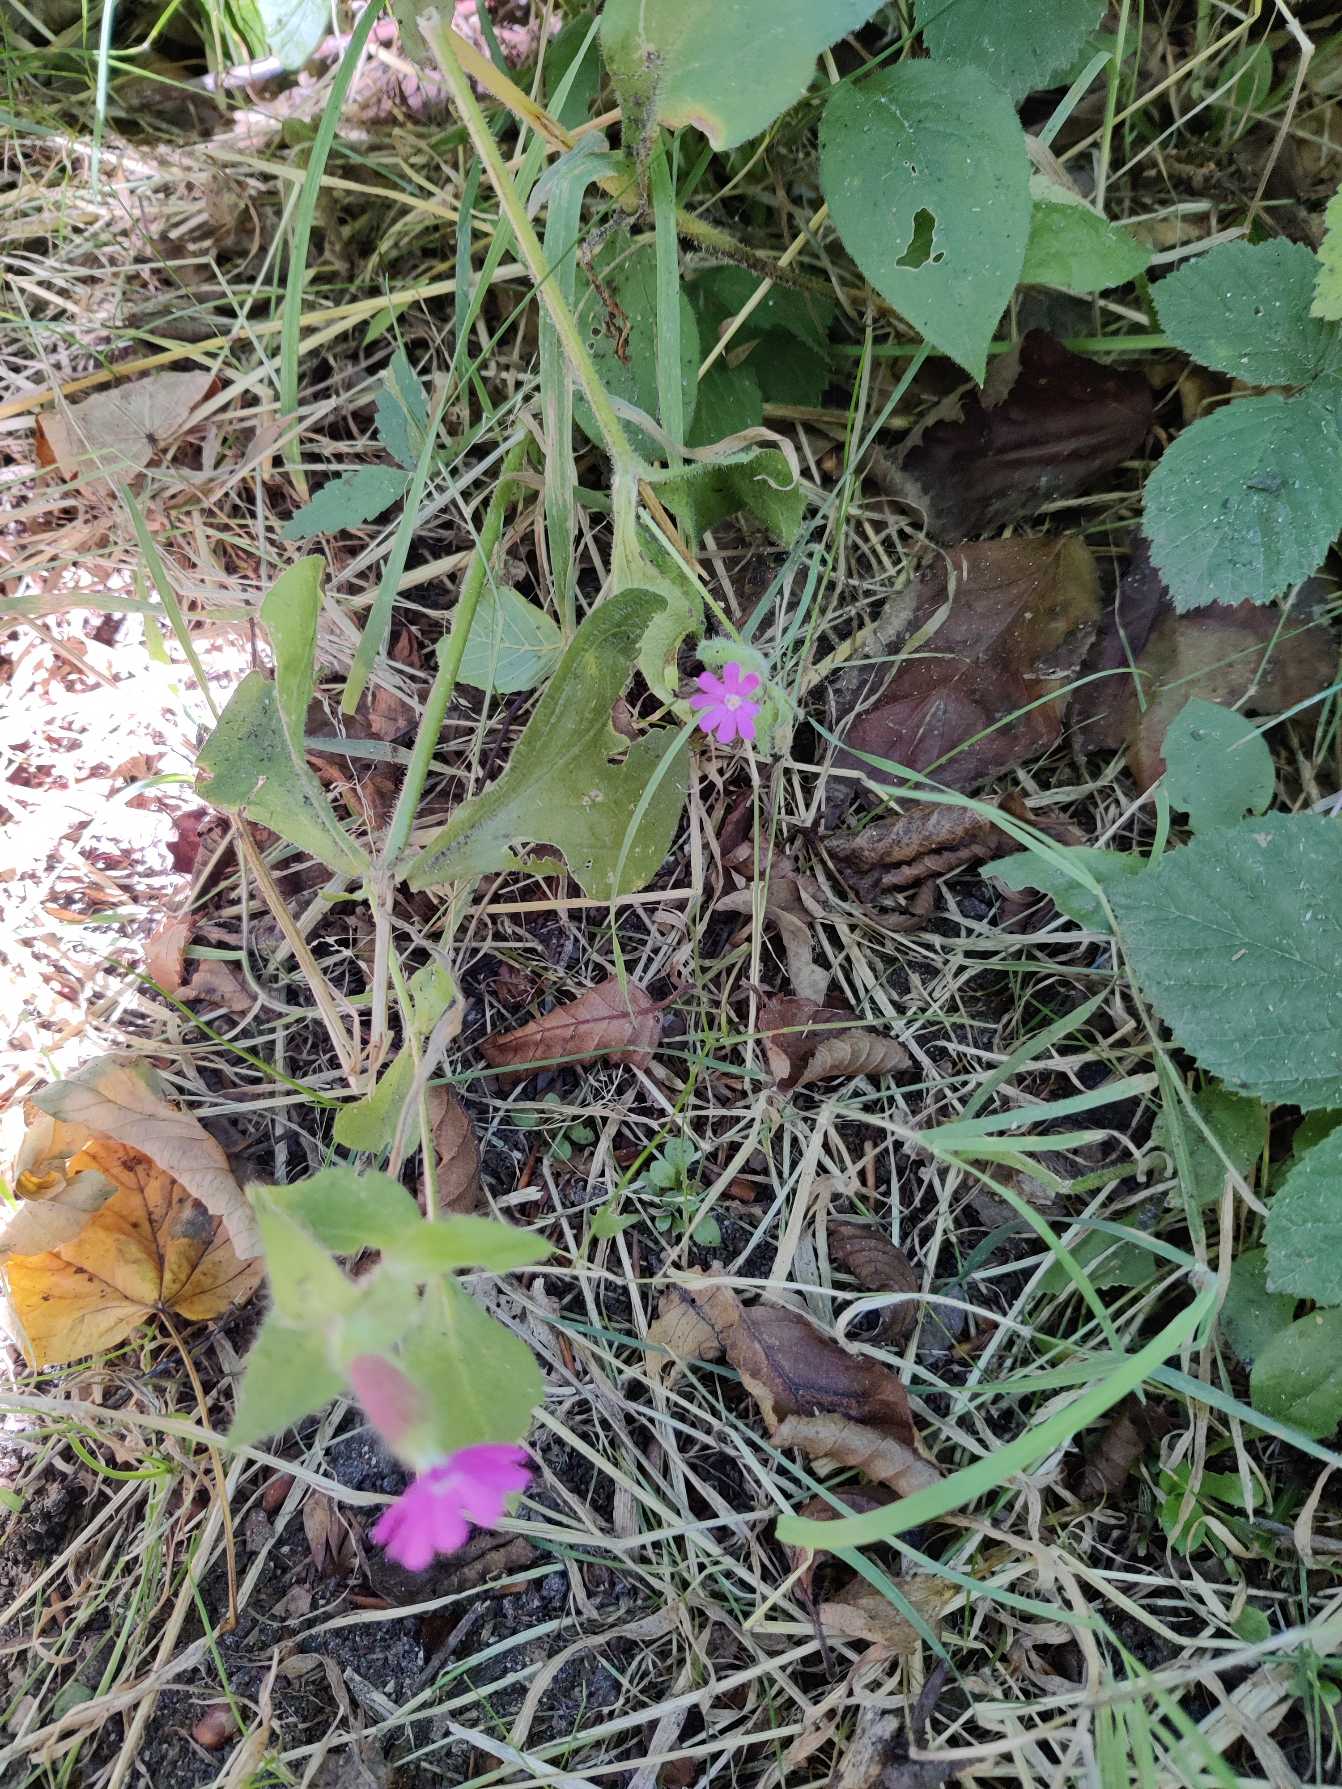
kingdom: Plantae
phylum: Tracheophyta
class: Magnoliopsida
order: Caryophyllales
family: Caryophyllaceae
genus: Silene
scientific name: Silene dioica
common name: Dagpragtstjerne
